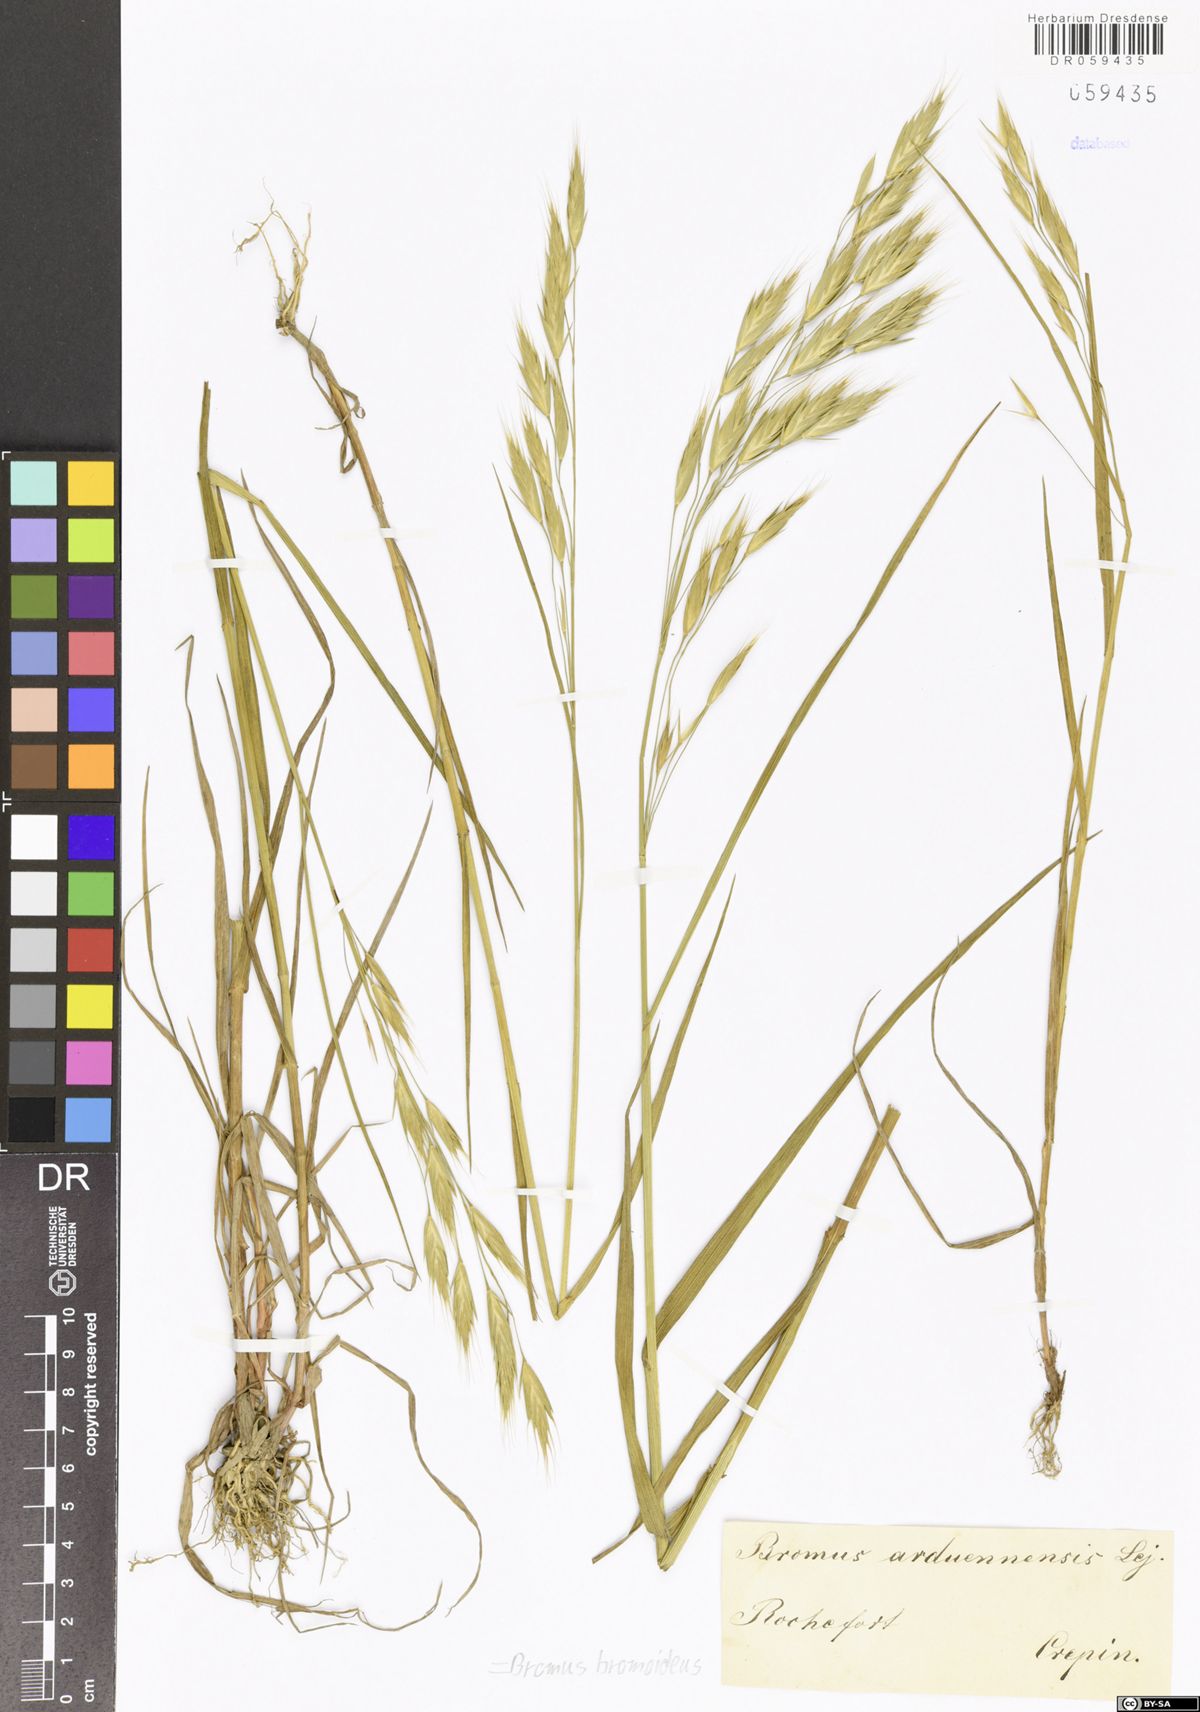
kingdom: Plantae
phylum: Tracheophyta
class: Liliopsida
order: Poales
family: Poaceae
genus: Bromus
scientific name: Bromus bromoideus
